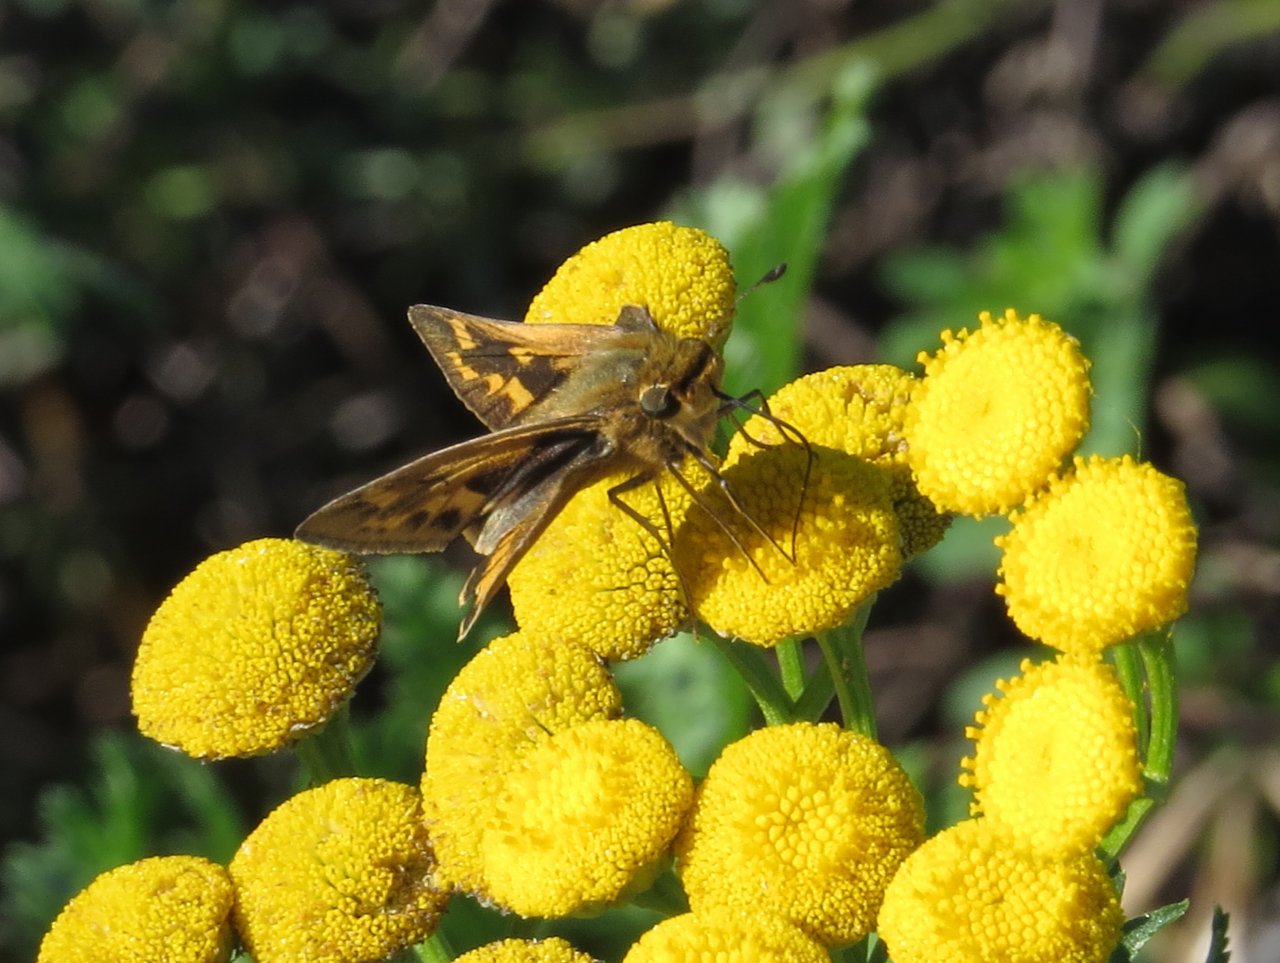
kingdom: Animalia
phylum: Arthropoda
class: Insecta
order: Lepidoptera
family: Hesperiidae
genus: Hylephila
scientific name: Hylephila phyleus
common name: Fiery Skipper
